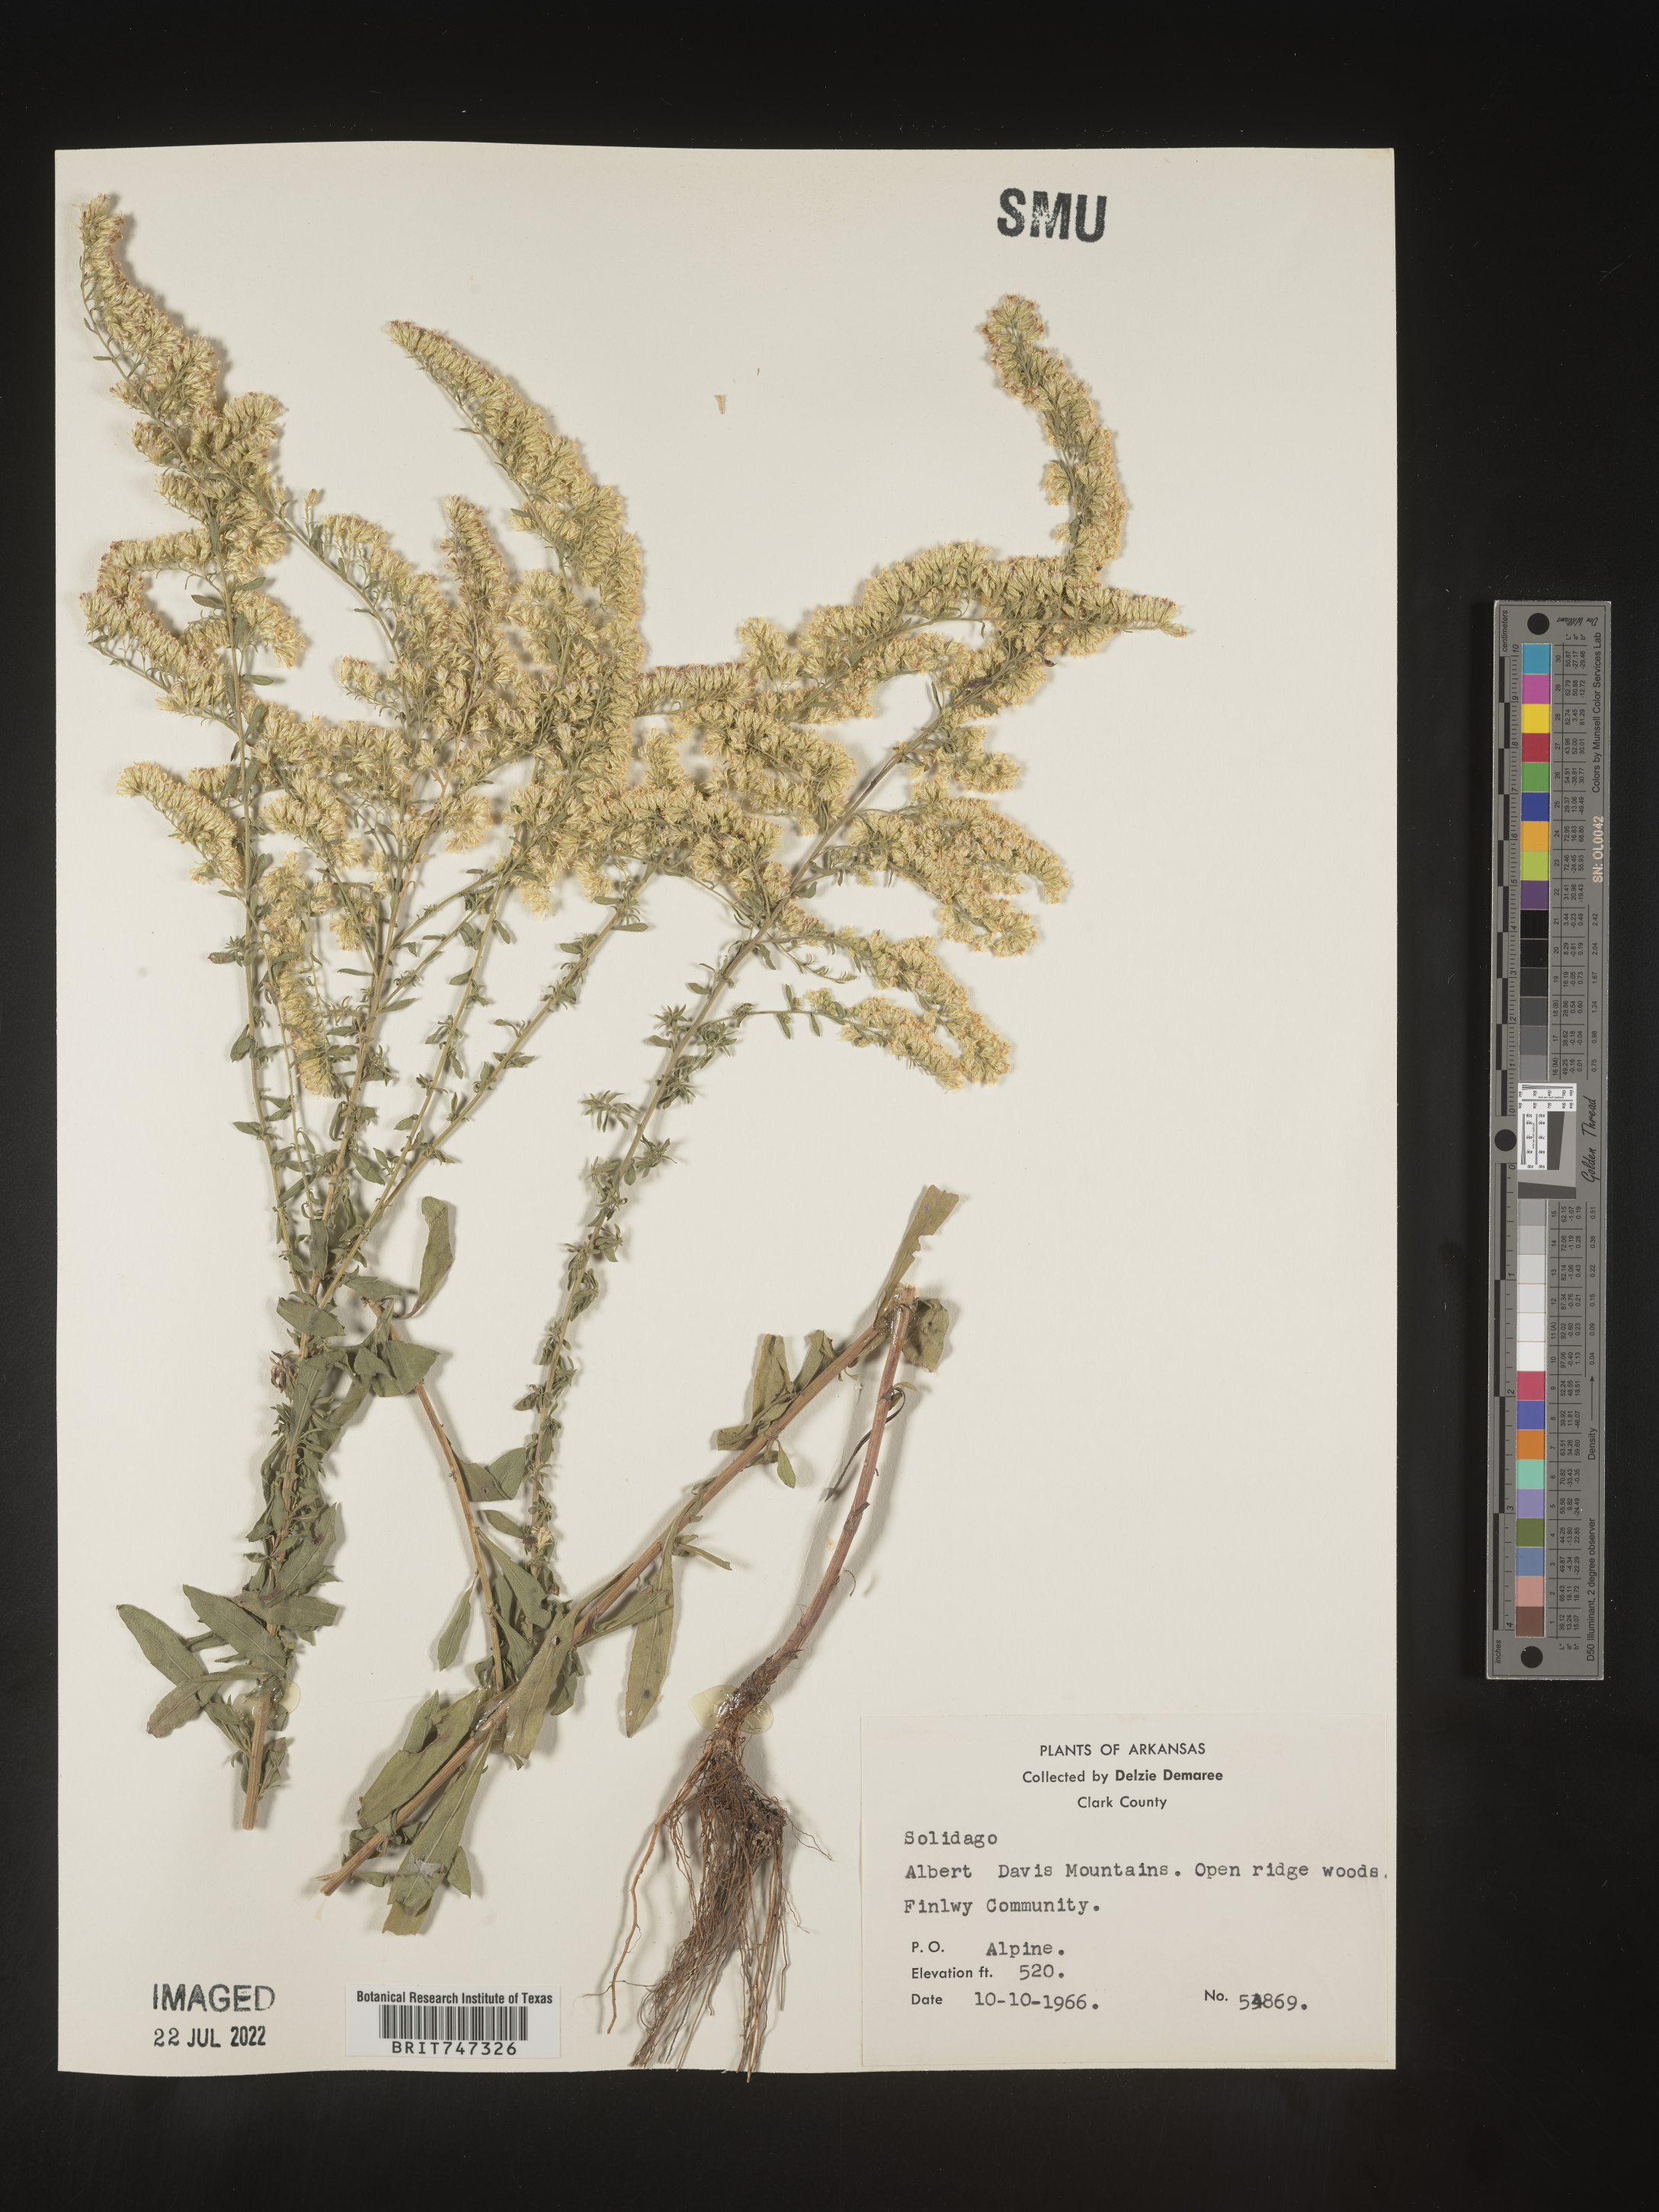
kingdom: Plantae
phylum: Tracheophyta
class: Magnoliopsida
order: Asterales
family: Asteraceae
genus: Solidago
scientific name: Solidago nemoralis
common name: Grey goldenrod
